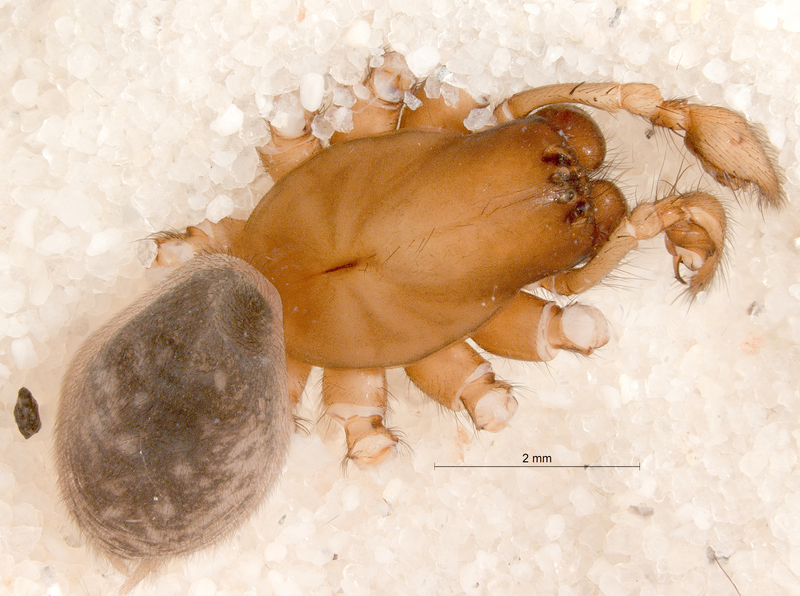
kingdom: Animalia
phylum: Arthropoda
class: Arachnida
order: Araneae
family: Agelenidae
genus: Inermocoelotes
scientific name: Inermocoelotes inermis
